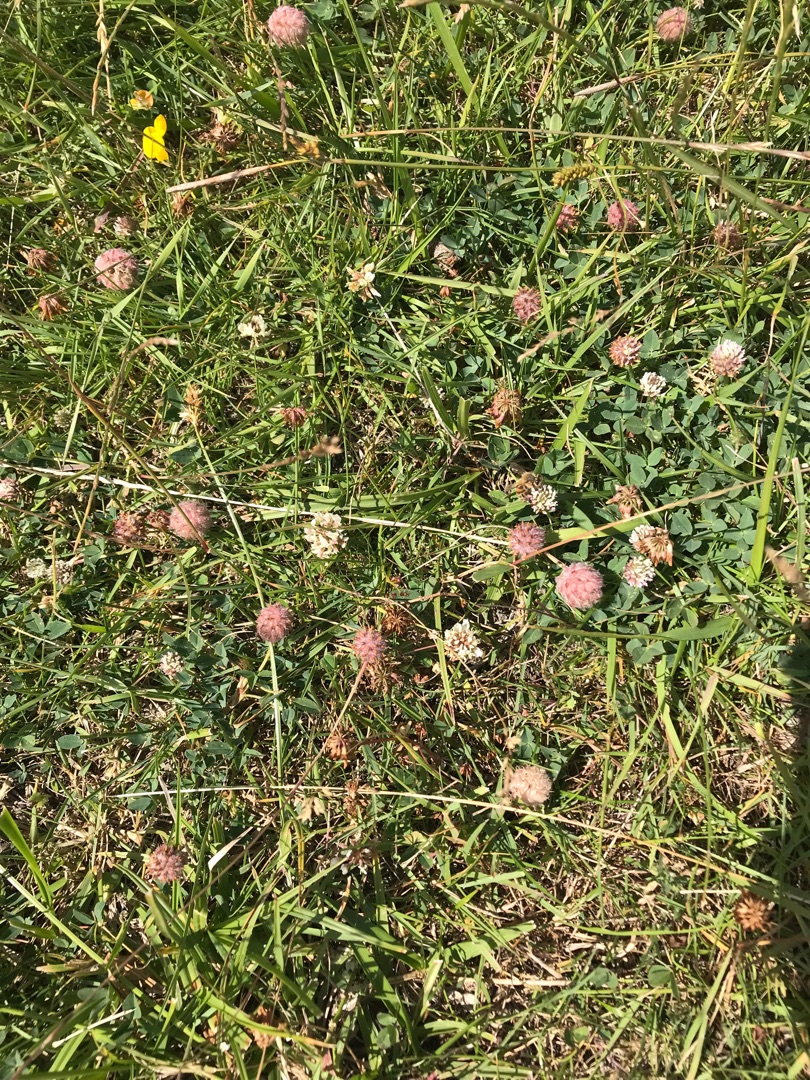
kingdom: Plantae
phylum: Tracheophyta
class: Magnoliopsida
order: Fabales
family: Fabaceae
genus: Trifolium
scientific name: Trifolium fragiferum
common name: Jordbær-kløver
